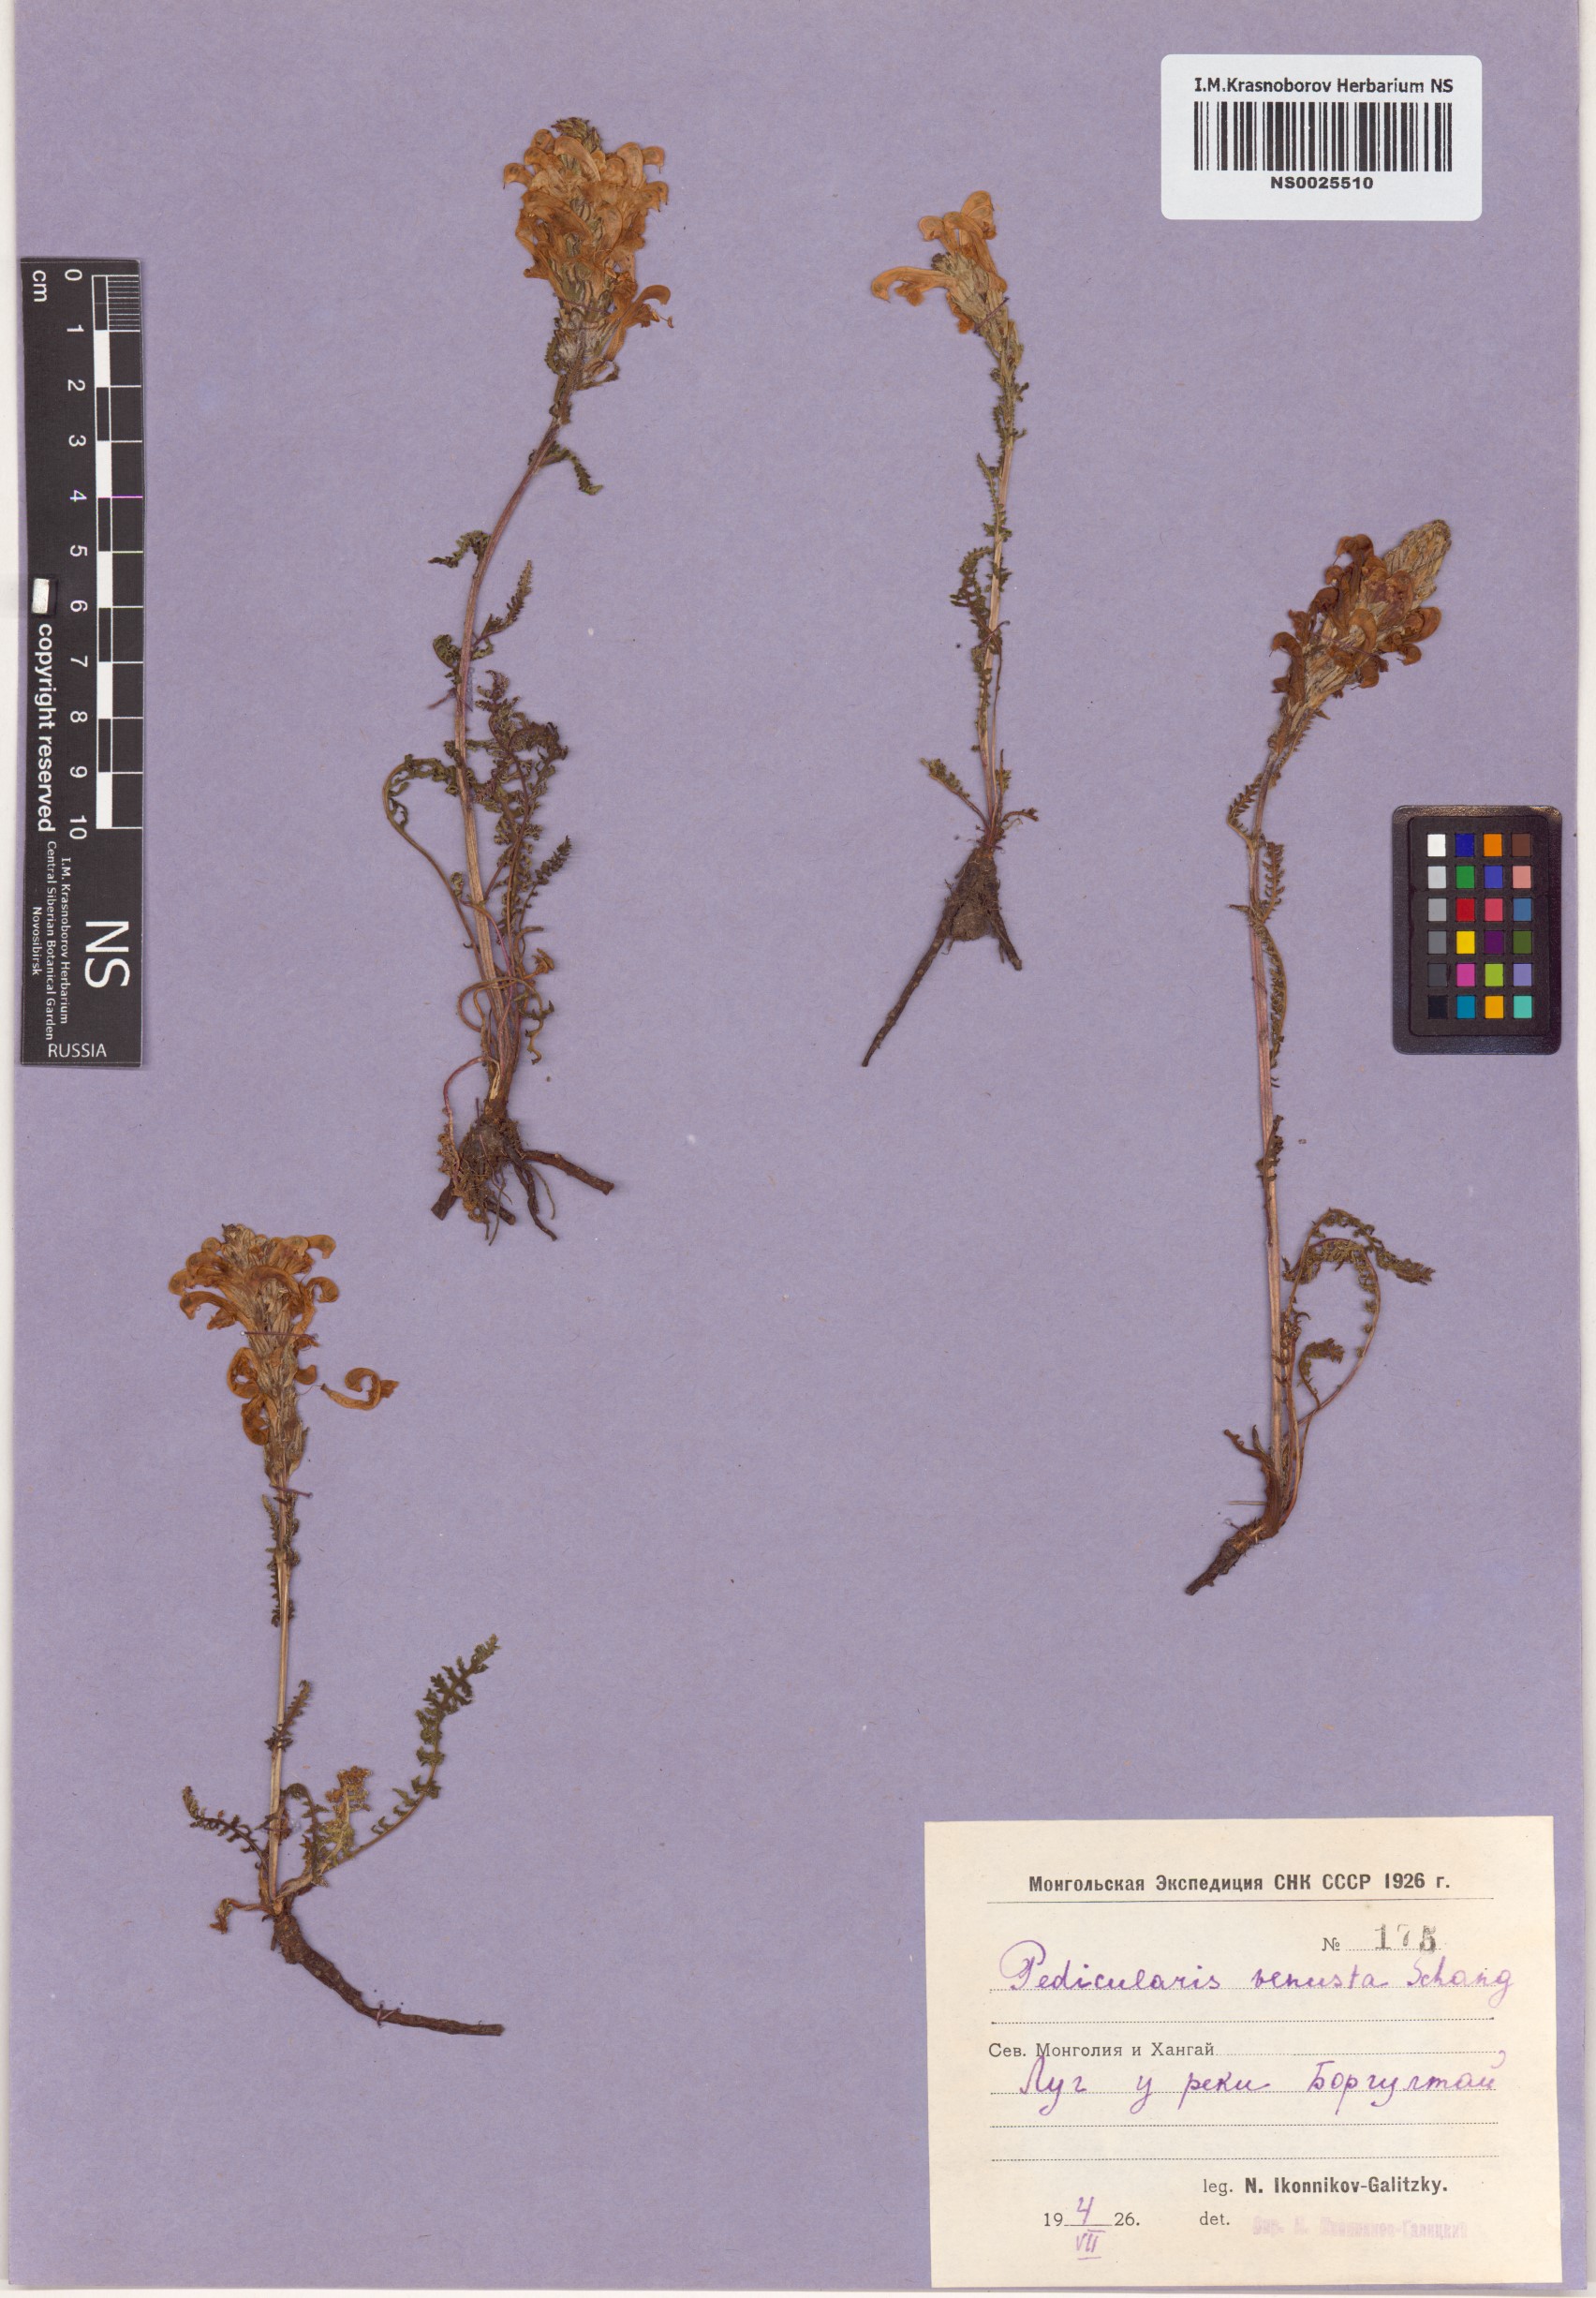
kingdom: Plantae
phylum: Tracheophyta
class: Magnoliopsida
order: Lamiales
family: Orobanchaceae
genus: Pedicularis
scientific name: Pedicularis venusta
